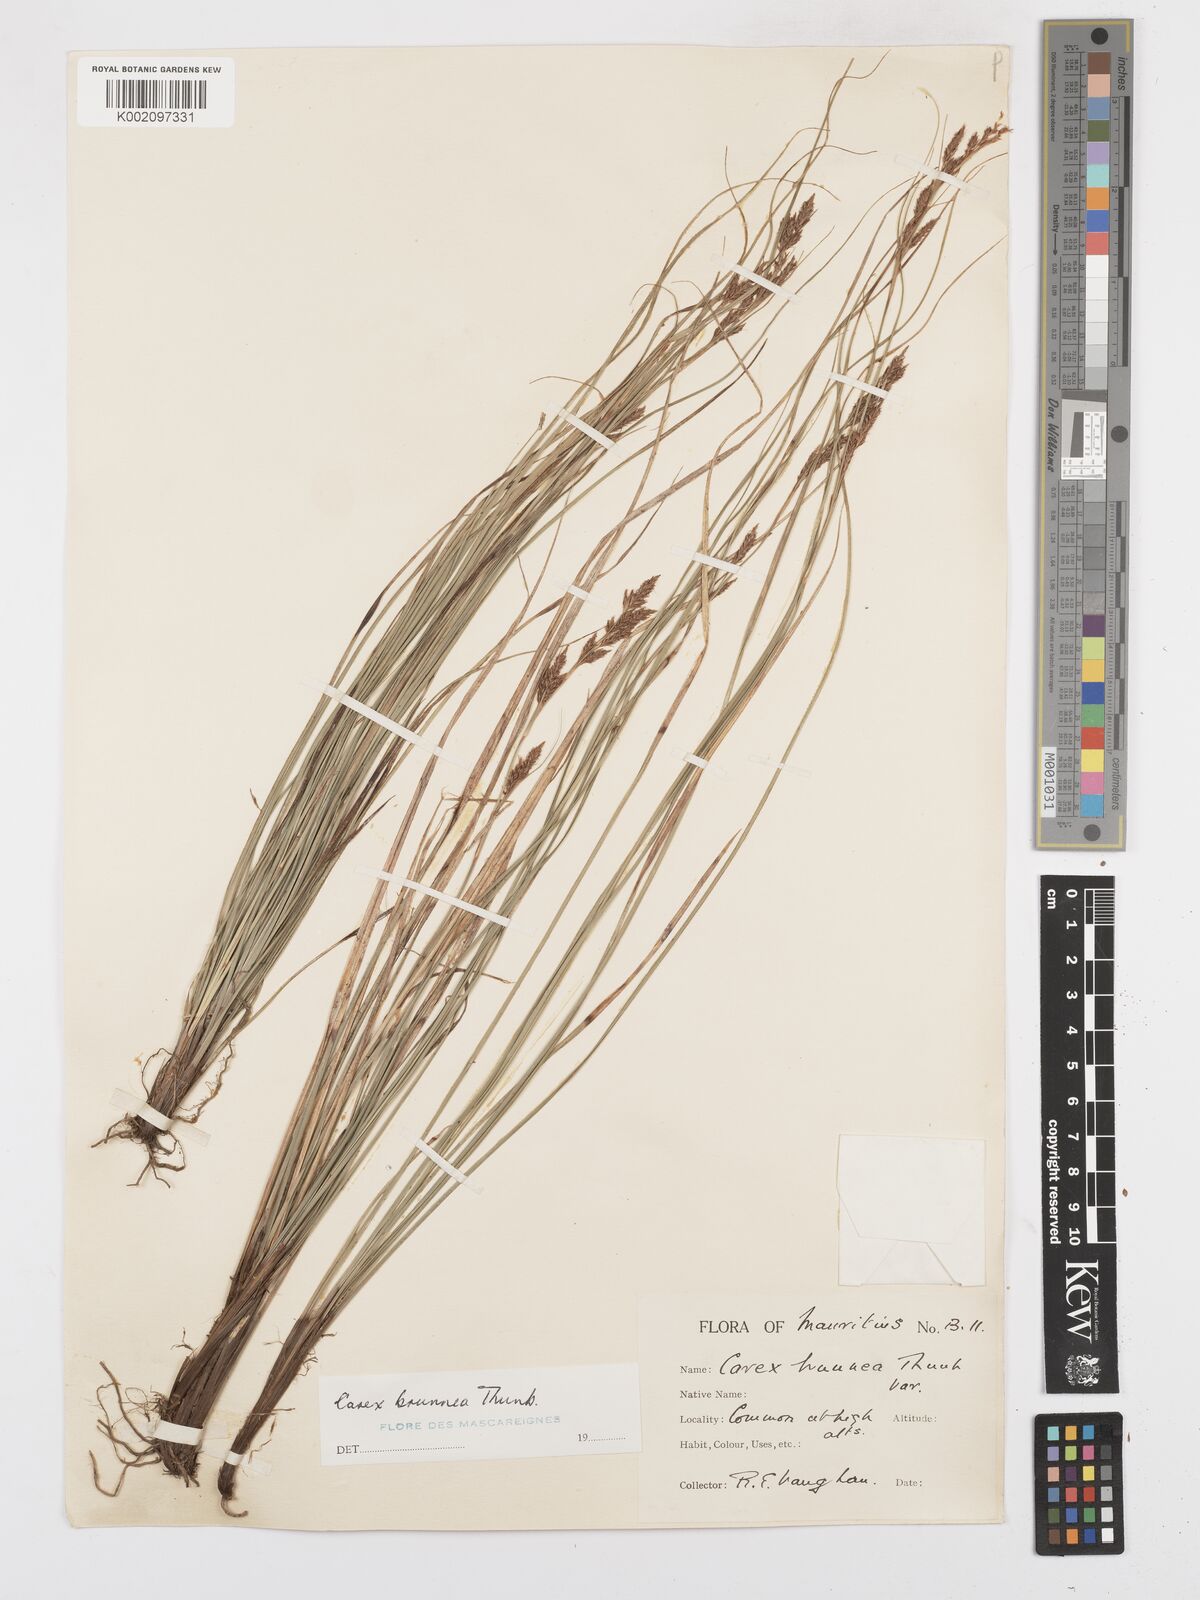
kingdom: Plantae
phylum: Tracheophyta
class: Liliopsida
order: Poales
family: Cyperaceae
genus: Carex
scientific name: Carex brunnea
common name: Greater brown sedge
